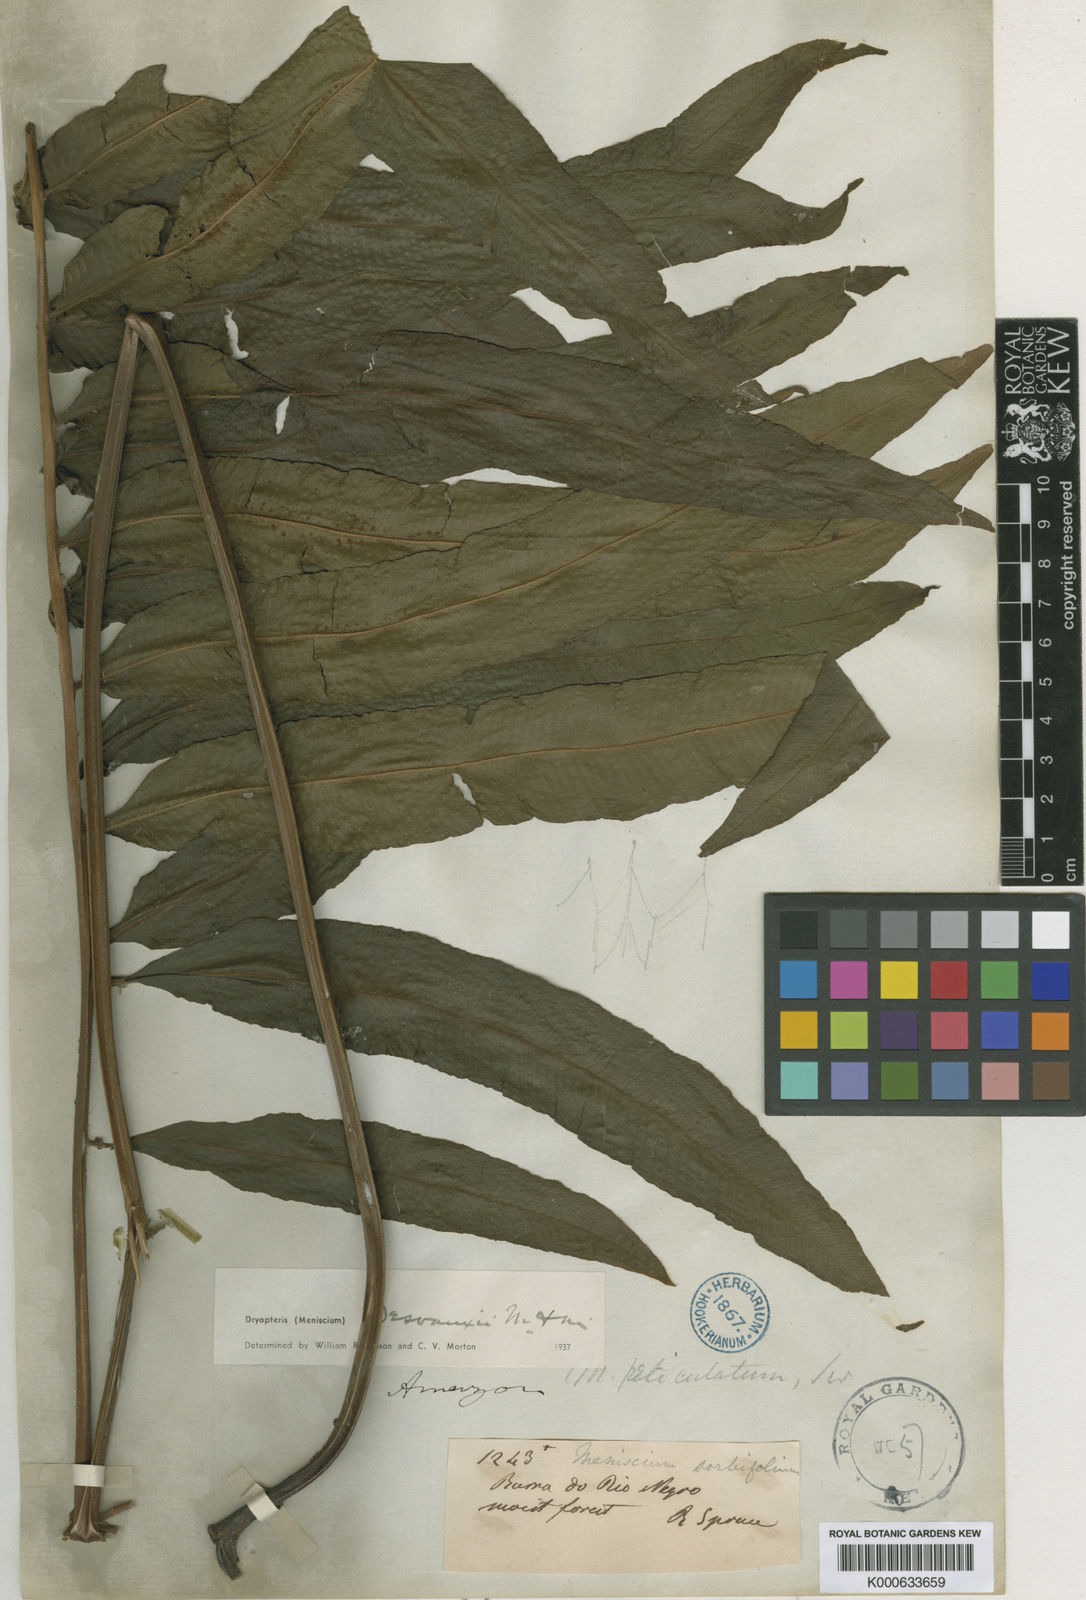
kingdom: Plantae
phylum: Tracheophyta
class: Polypodiopsida
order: Polypodiales
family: Thelypteridaceae
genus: Meniscium
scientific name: Meniscium arborescens
